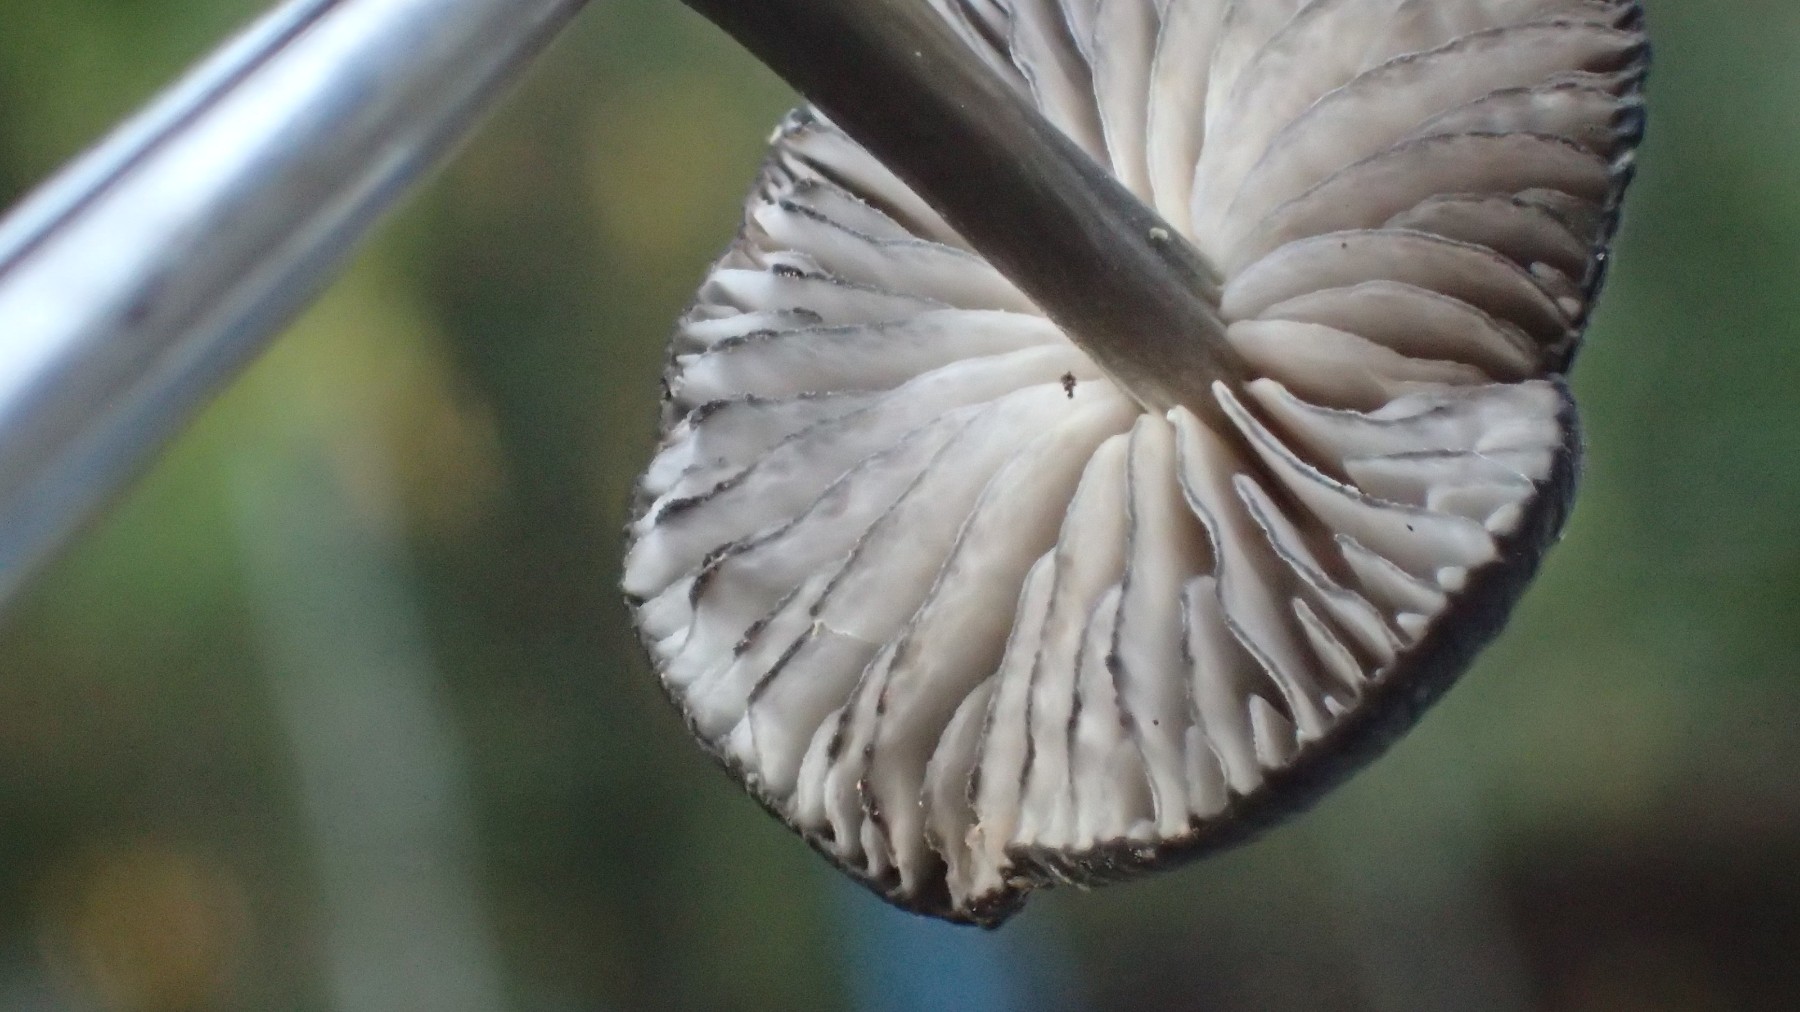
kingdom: Fungi
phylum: Basidiomycota
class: Agaricomycetes
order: Agaricales
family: Entolomataceae
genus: Entoloma
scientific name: Entoloma
